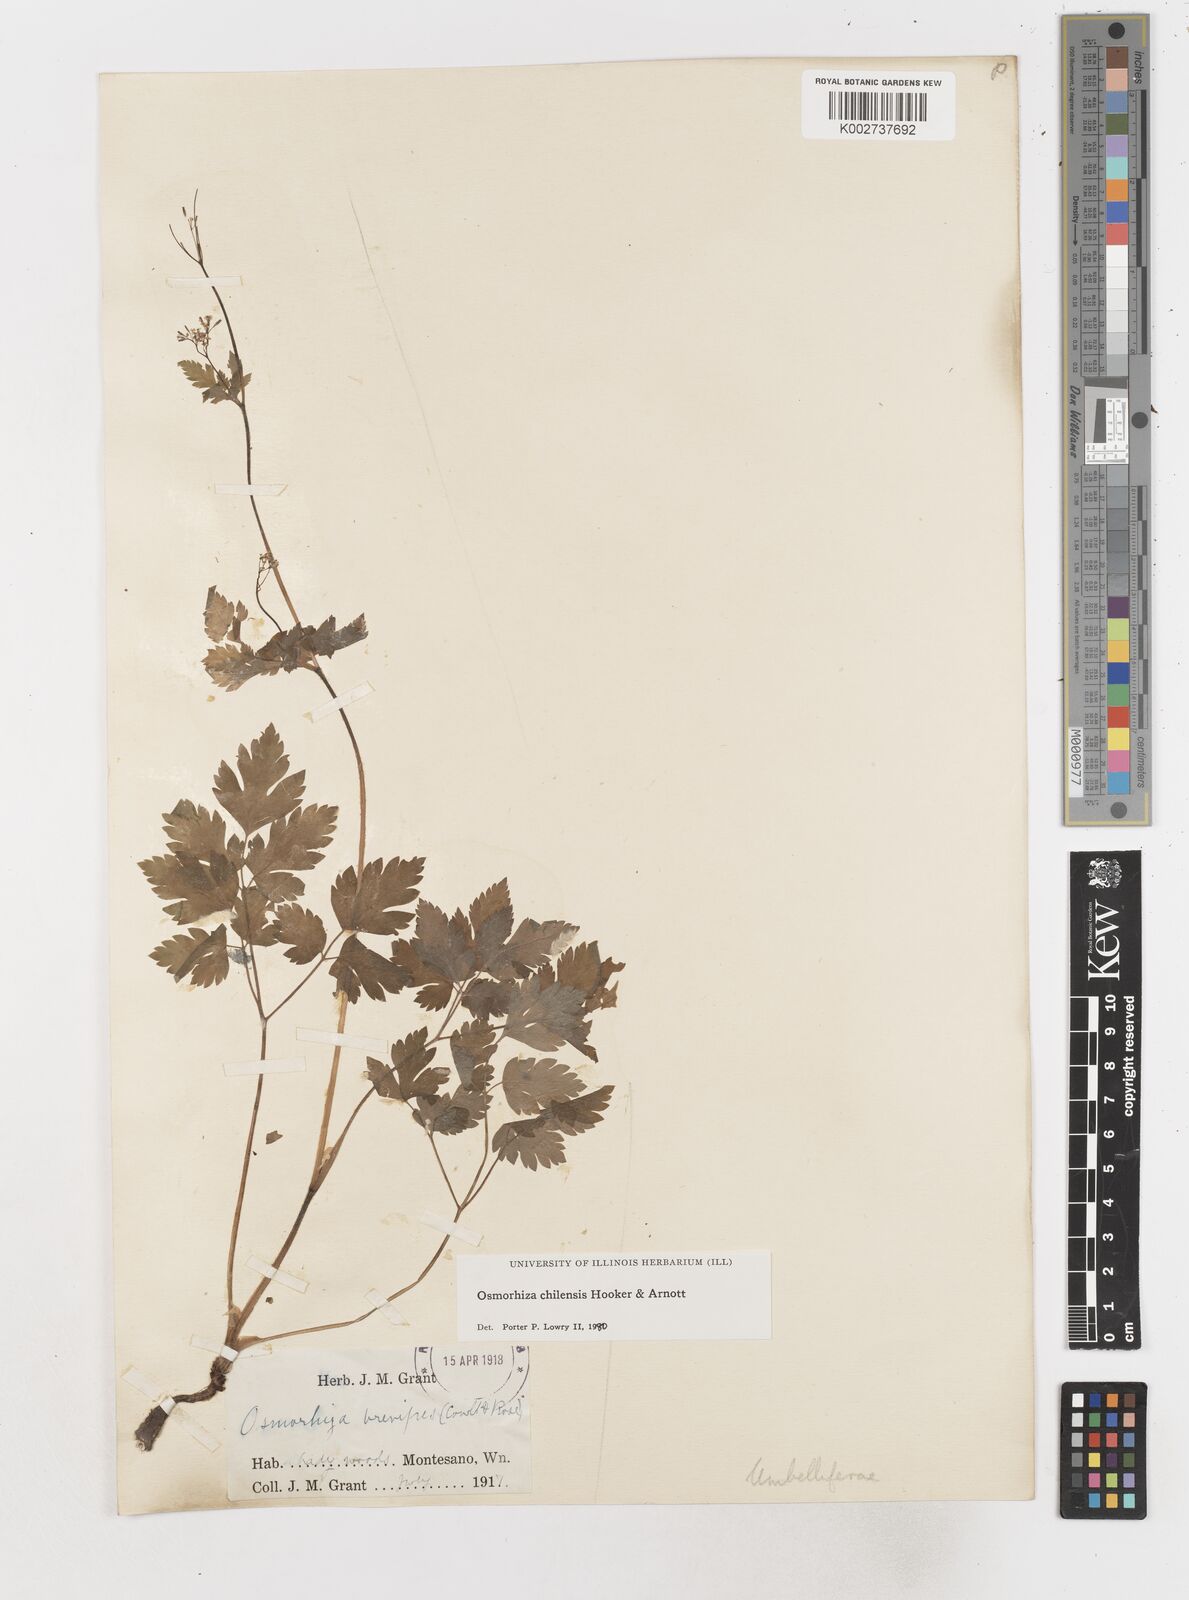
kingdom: Plantae
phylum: Tracheophyta
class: Magnoliopsida
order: Apiales
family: Apiaceae
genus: Osmorhiza
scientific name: Osmorhiza berteroi
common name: Mountain sweet cicely
